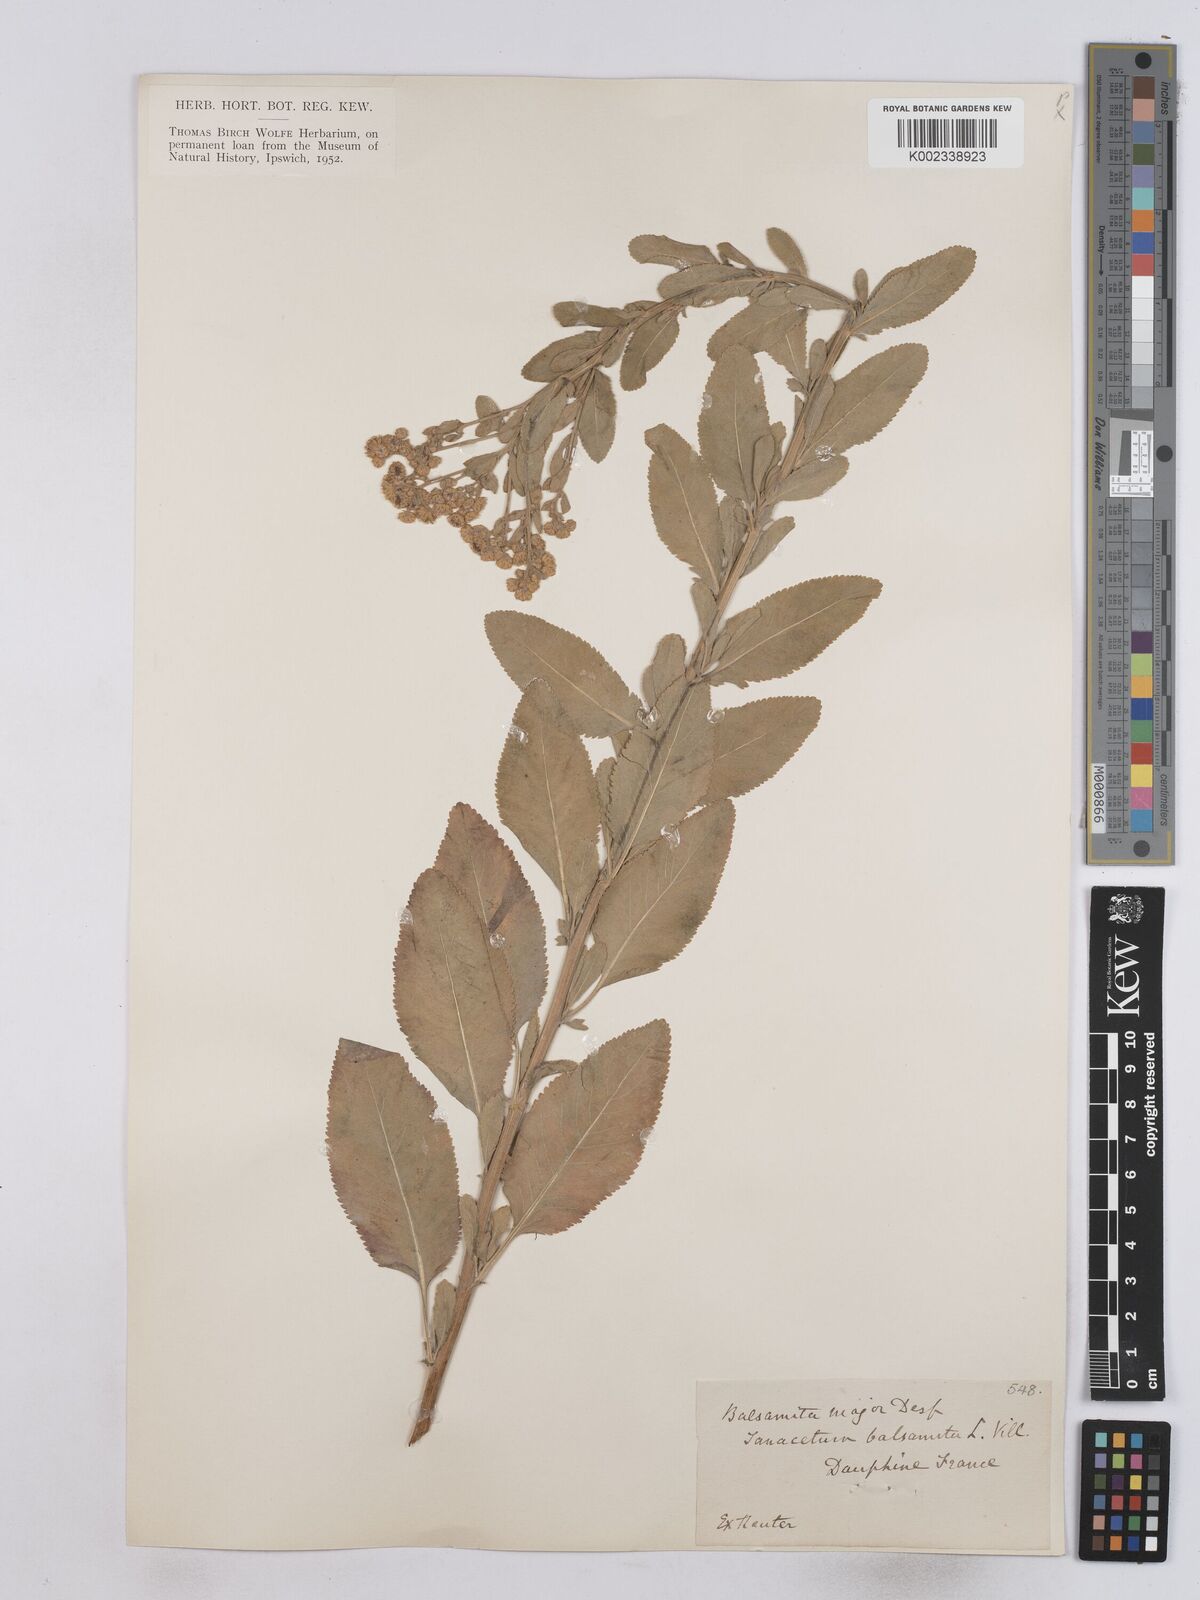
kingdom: Plantae
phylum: Tracheophyta
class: Magnoliopsida
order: Asterales
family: Asteraceae
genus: Tanacetum
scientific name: Tanacetum balsamita
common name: Costmary
